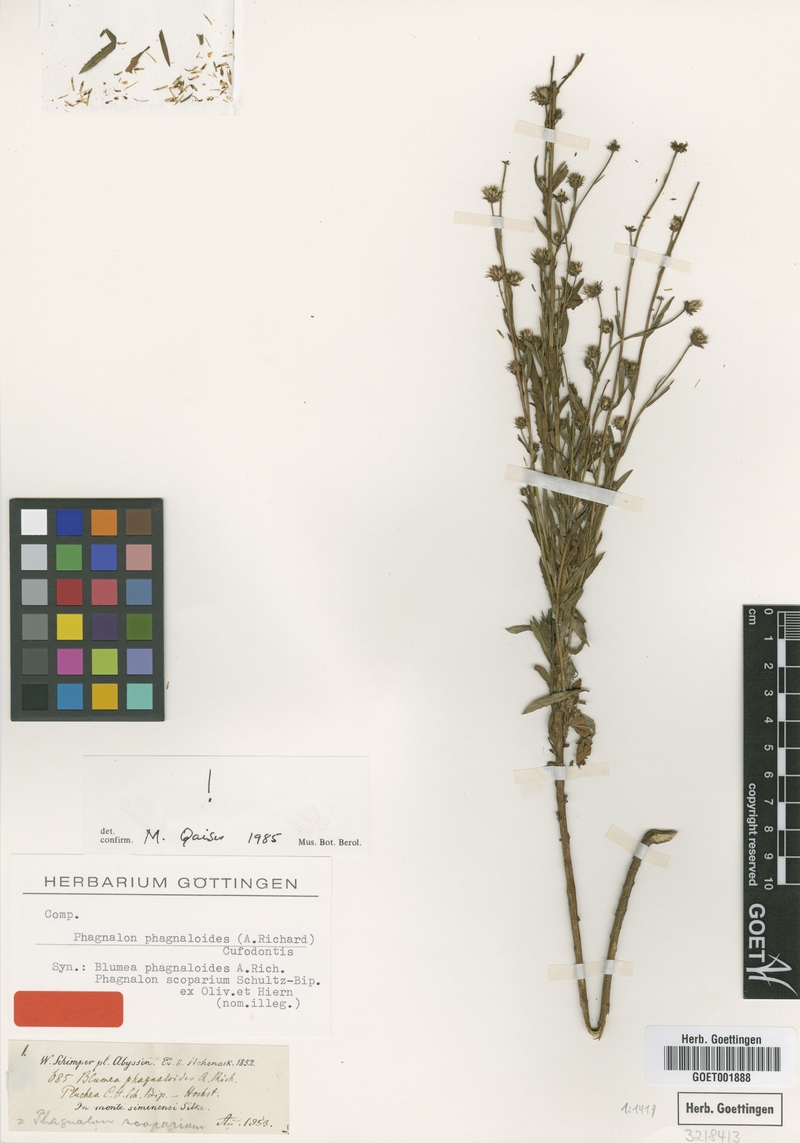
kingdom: Plantae
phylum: Tracheophyta
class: Magnoliopsida
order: Asterales
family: Asteraceae
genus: Phagnalon
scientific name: Phagnalon phagnaloides
